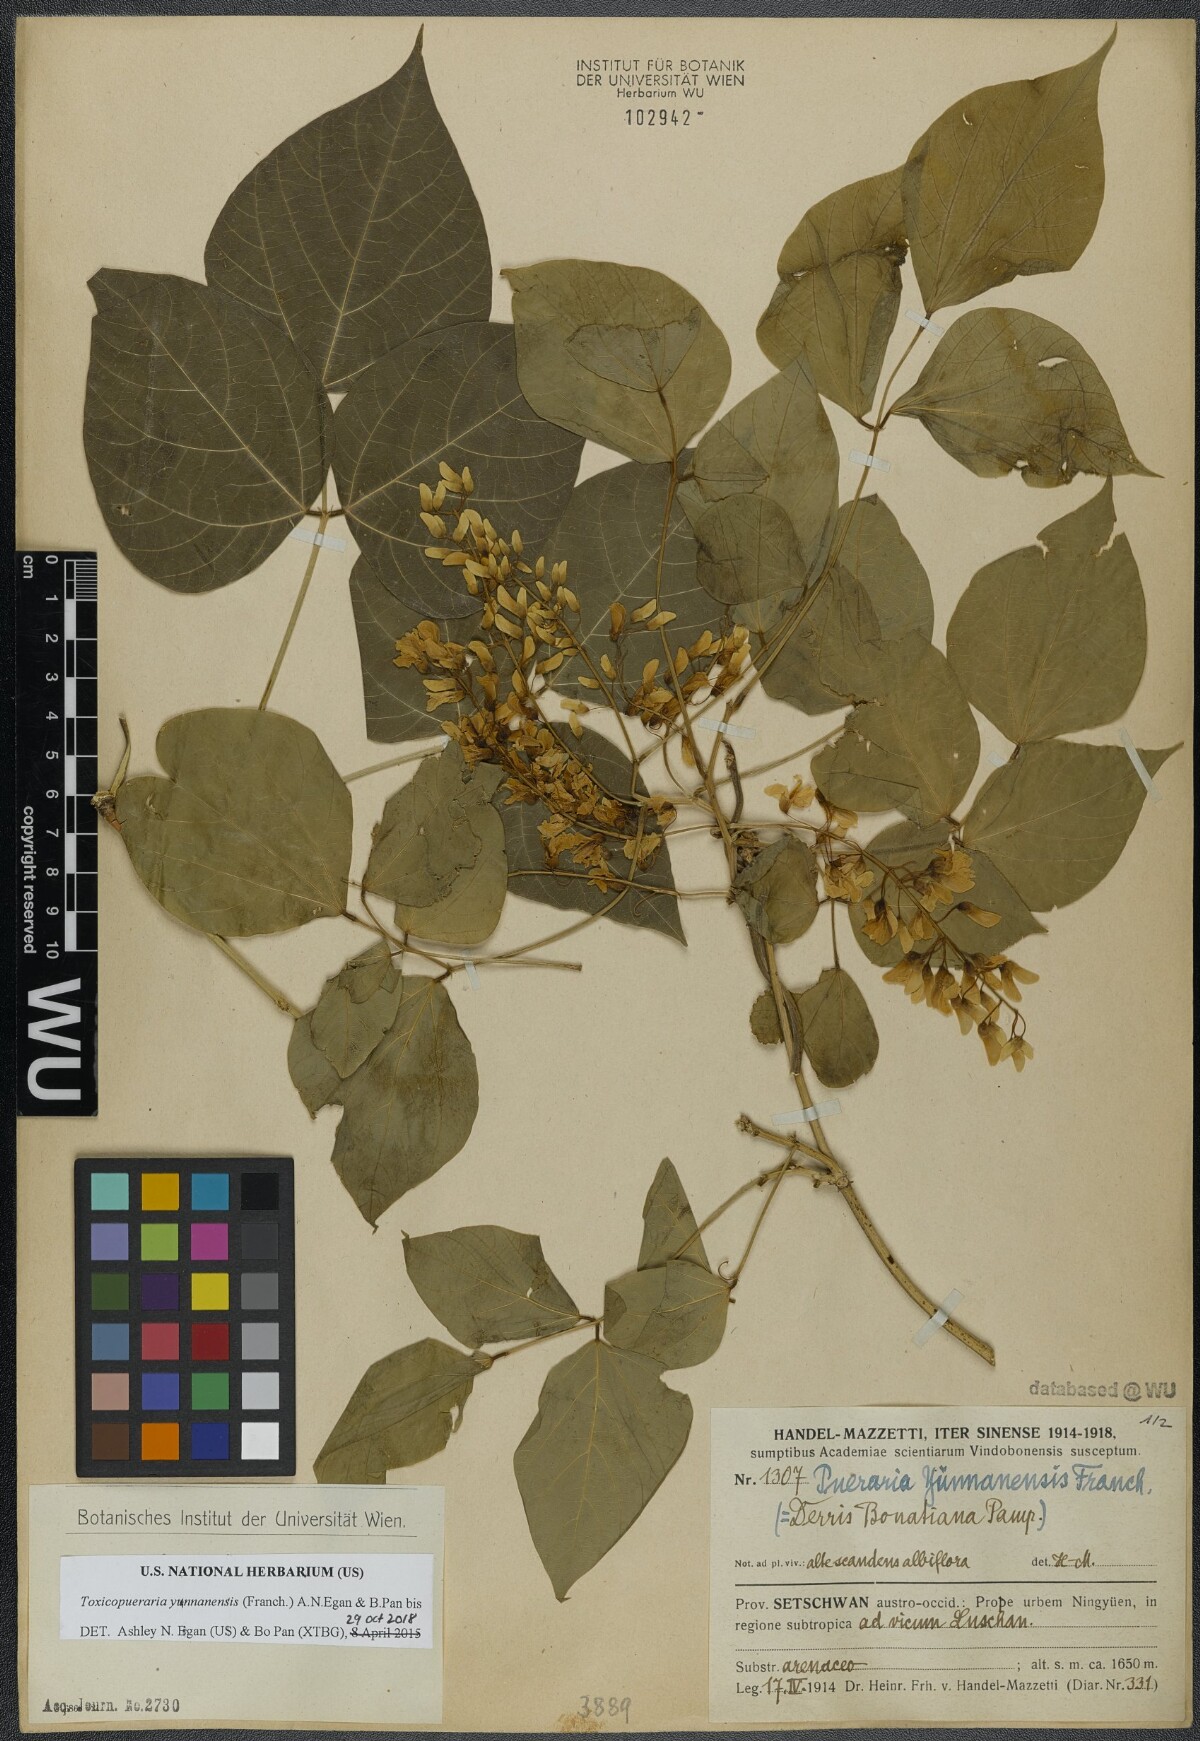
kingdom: Plantae
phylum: Tracheophyta
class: Magnoliopsida
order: Fabales
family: Fabaceae
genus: Toxicopueraria
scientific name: Toxicopueraria yunnanensis
